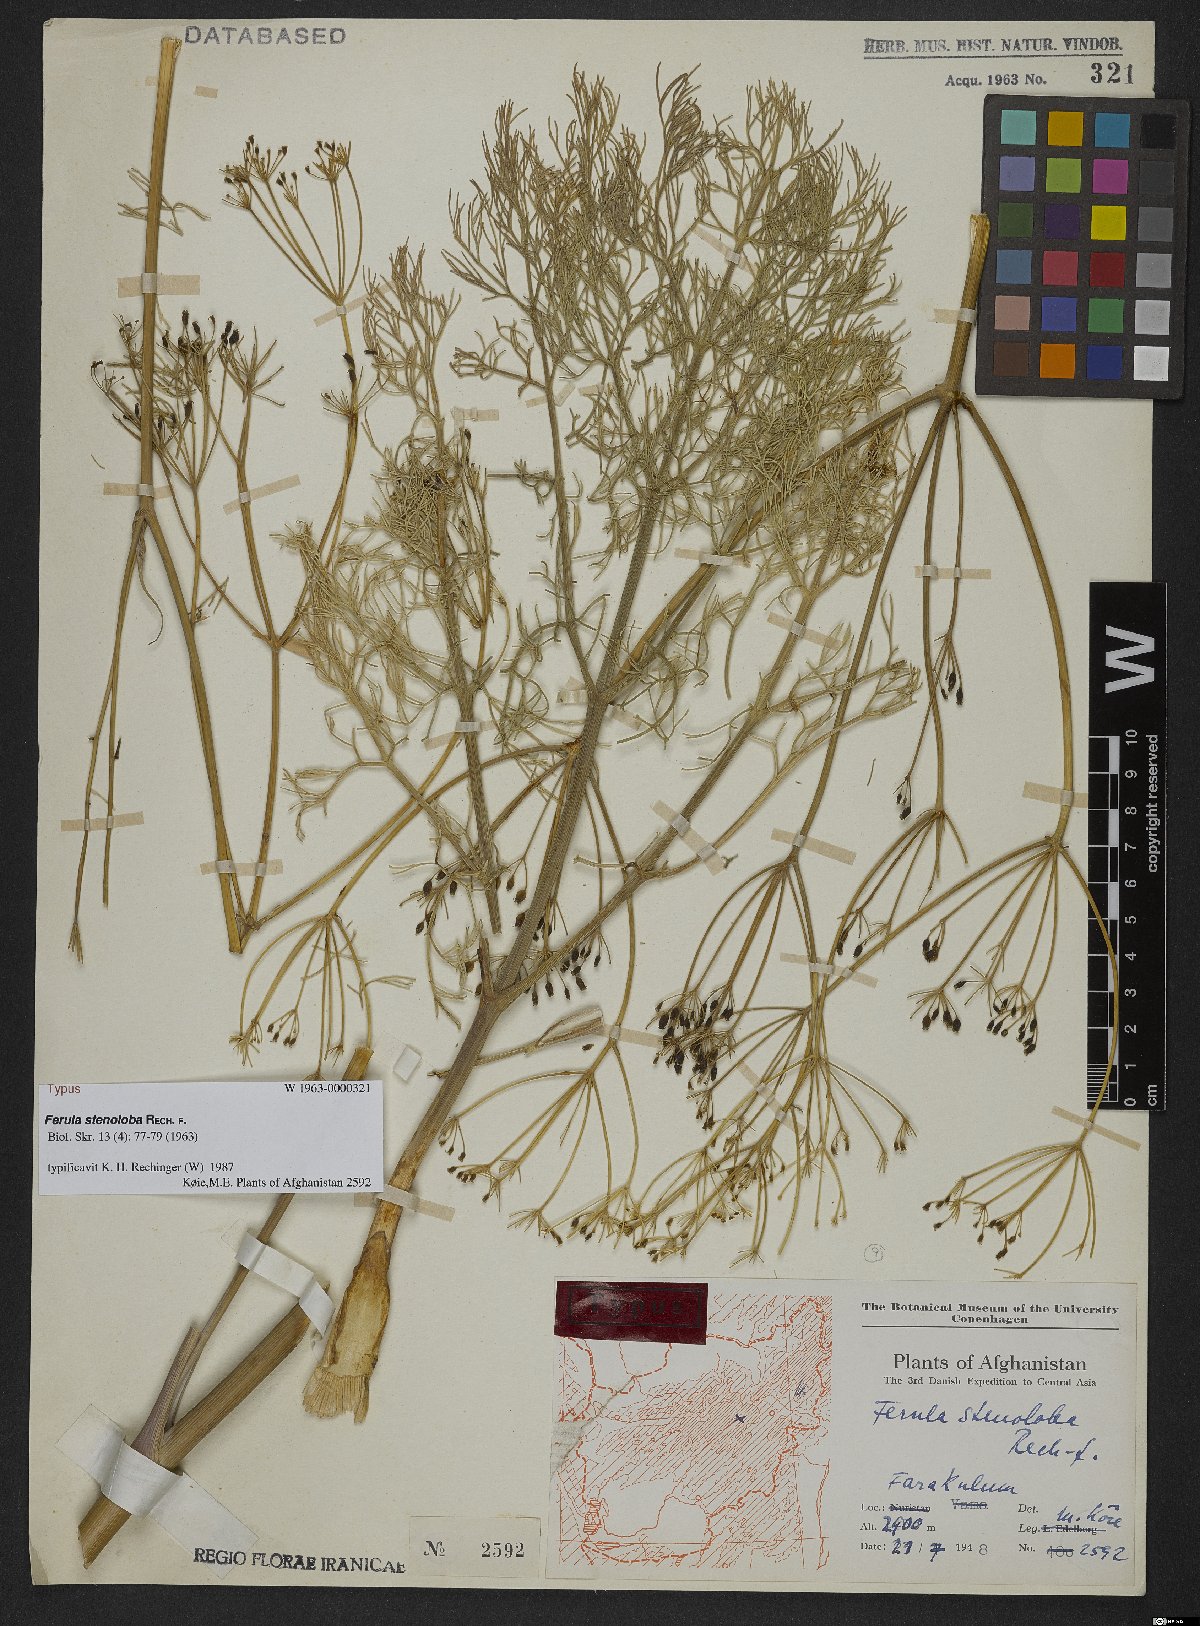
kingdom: Plantae
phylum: Tracheophyta
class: Magnoliopsida
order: Apiales
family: Apiaceae
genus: Ferula
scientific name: Ferula stenoloba
